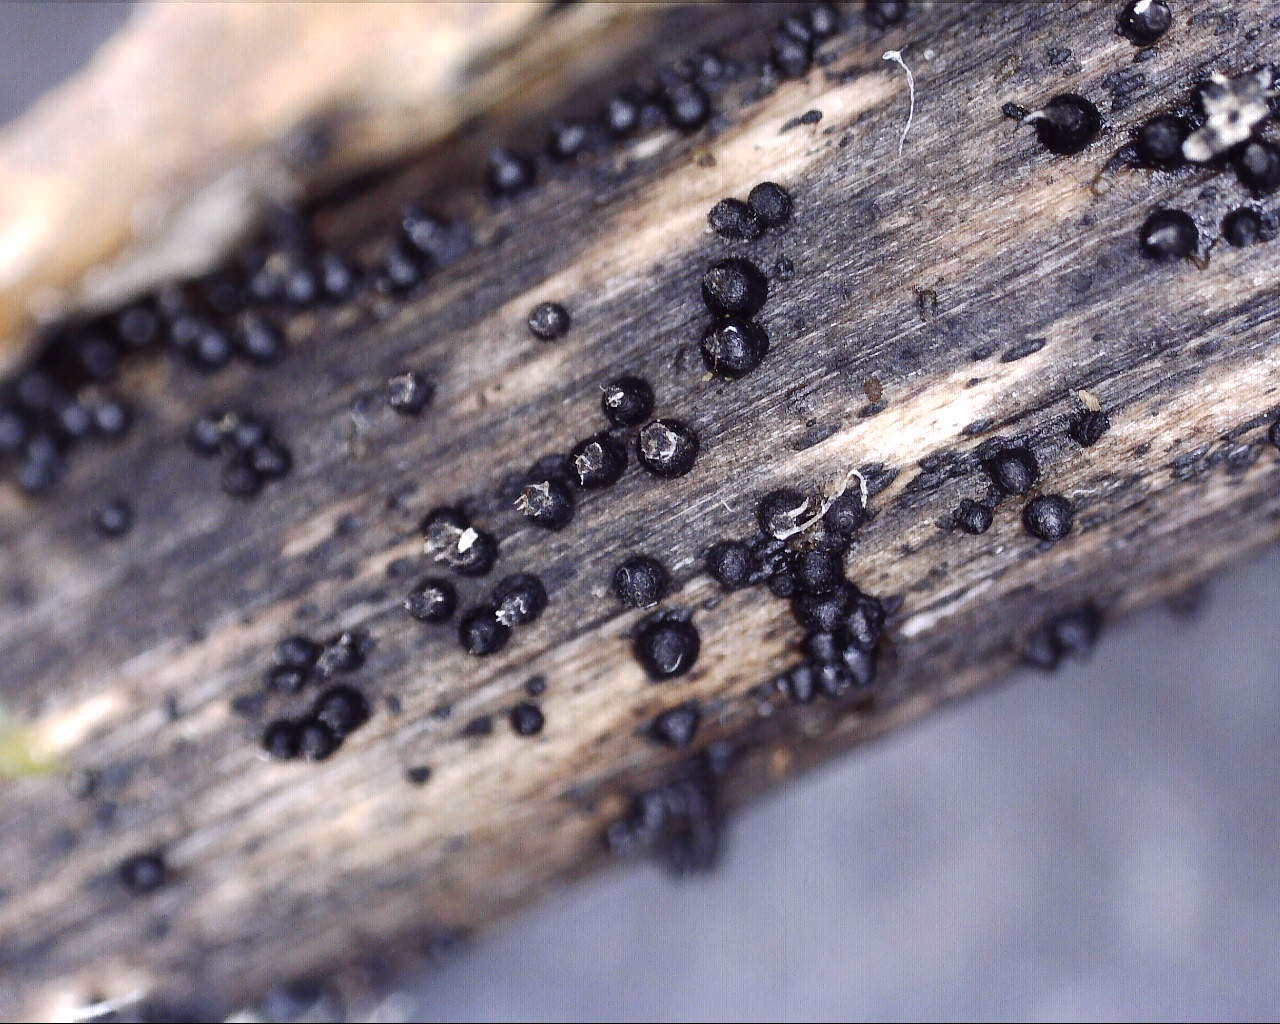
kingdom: Fungi
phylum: Ascomycota
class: Dothideomycetes
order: Pleosporales
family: Leptosphaeriaceae
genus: Leptosphaeria
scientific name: Leptosphaeria acuta
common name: spids kulkegle
